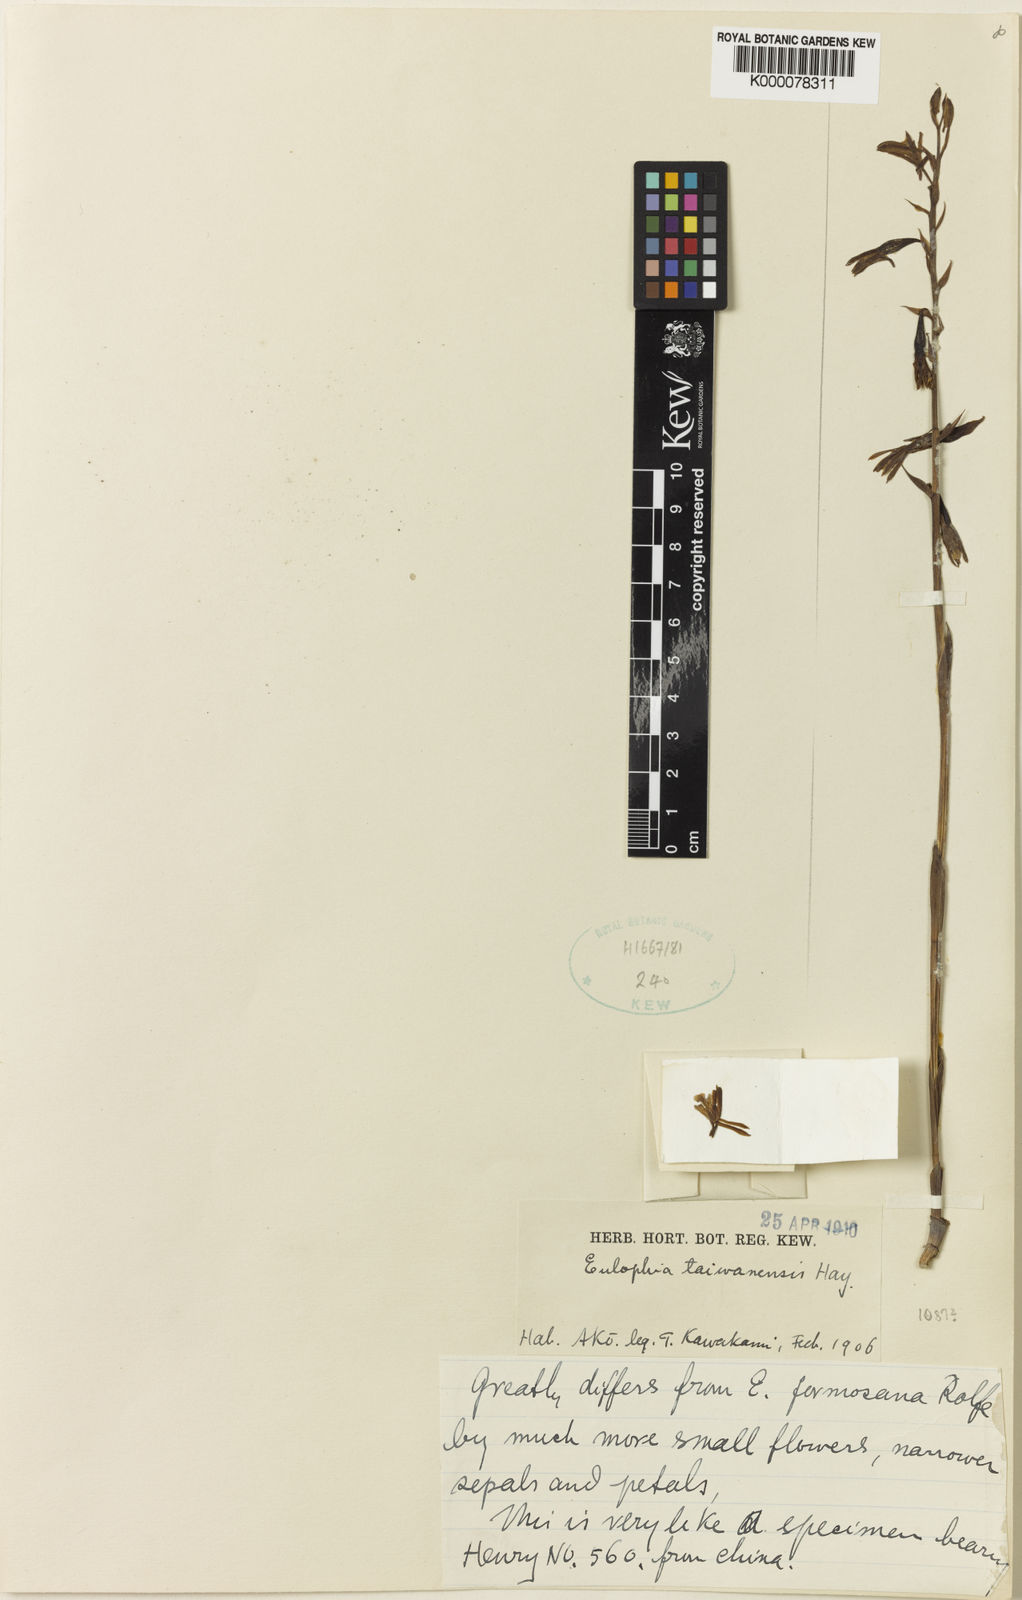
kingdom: Plantae
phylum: Tracheophyta
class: Liliopsida
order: Asparagales
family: Orchidaceae
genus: Eulophia
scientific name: Eulophia taiwanensis
